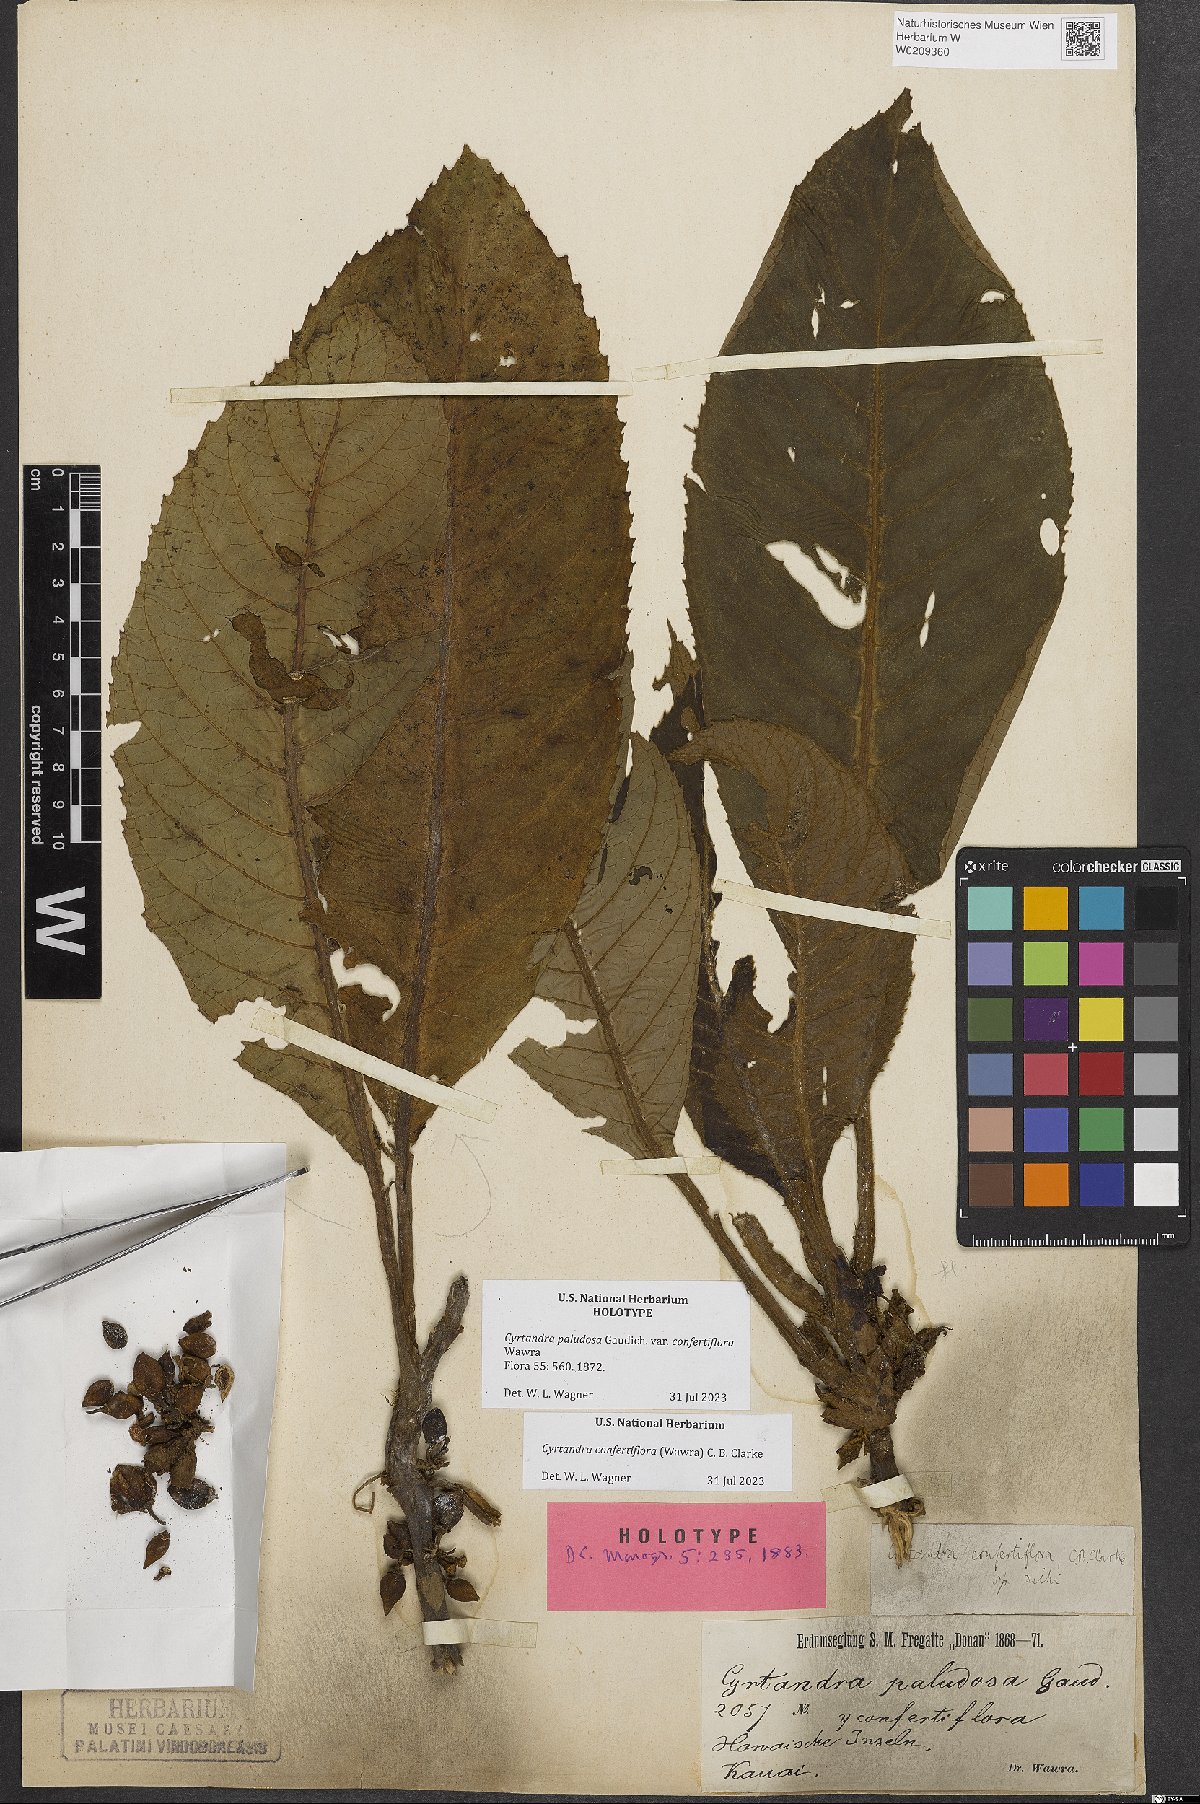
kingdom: Plantae
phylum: Tracheophyta
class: Magnoliopsida
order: Lamiales
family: Gesneriaceae
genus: Cyrtandra
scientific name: Cyrtandra confertiflora
